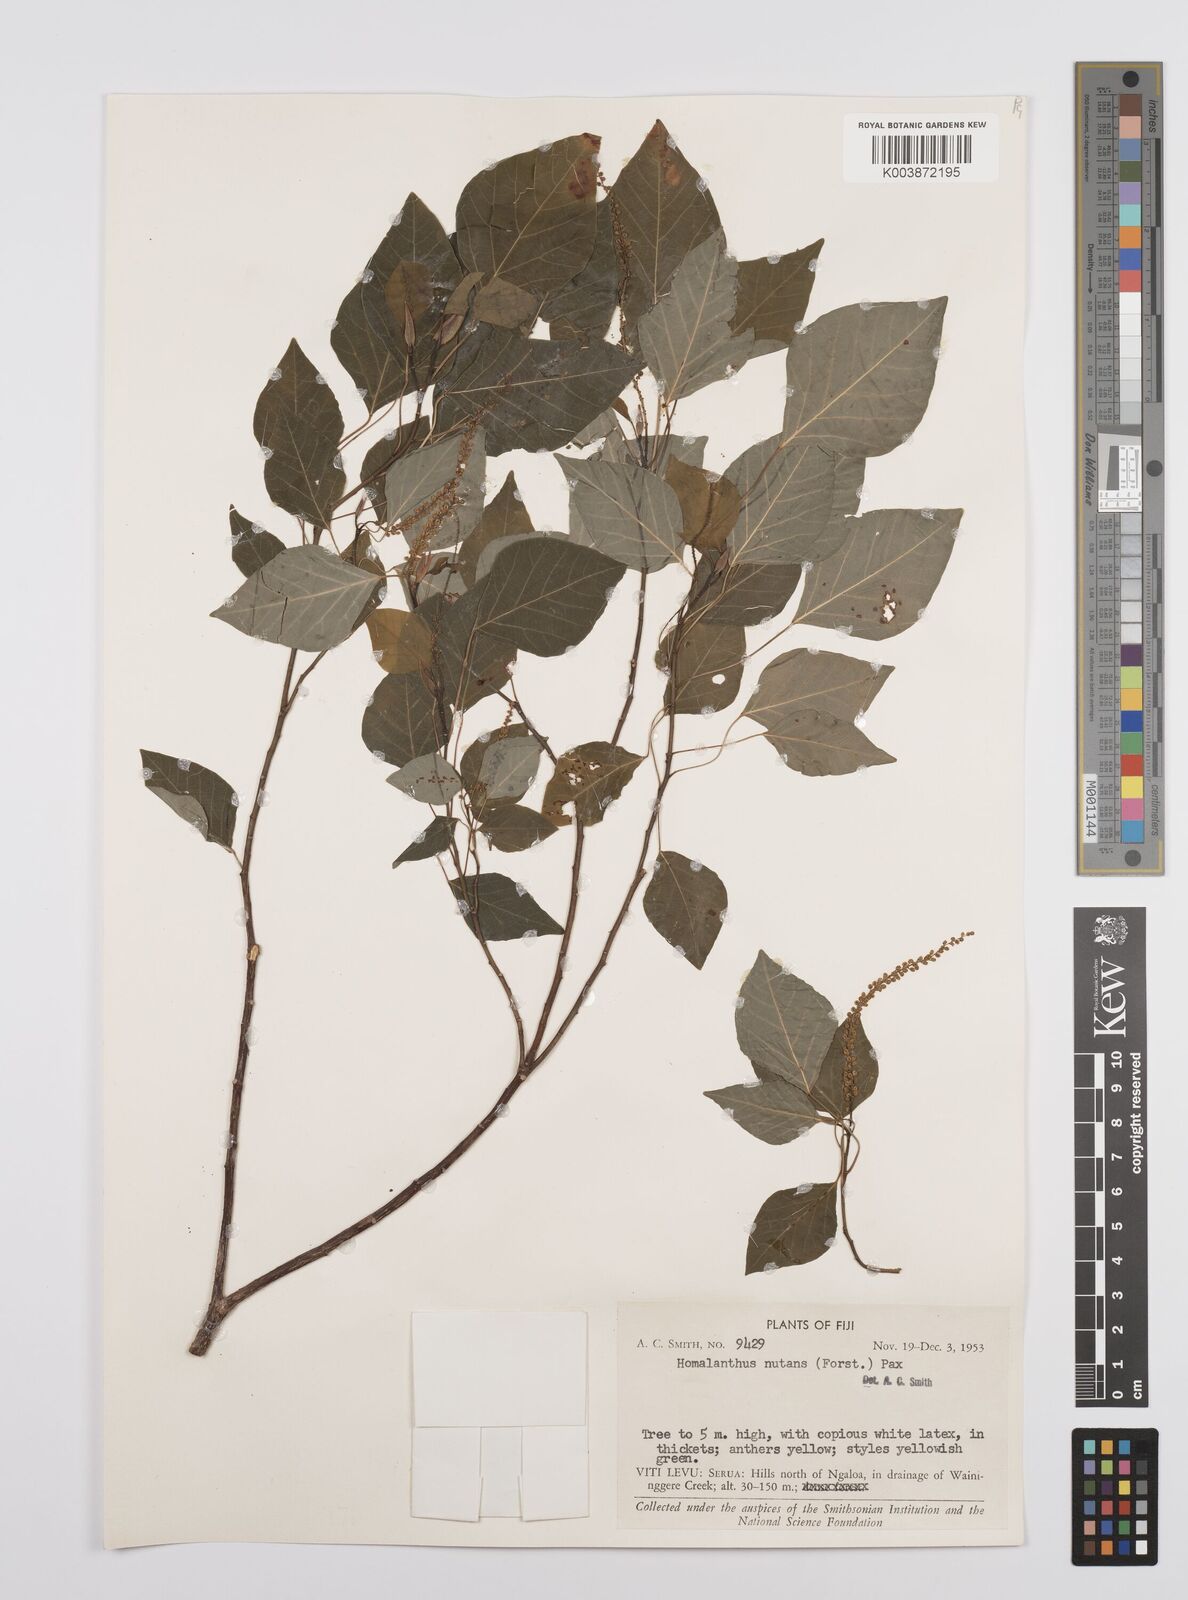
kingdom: Plantae
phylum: Tracheophyta
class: Magnoliopsida
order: Malpighiales
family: Euphorbiaceae
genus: Homalanthus
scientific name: Homalanthus nutans
